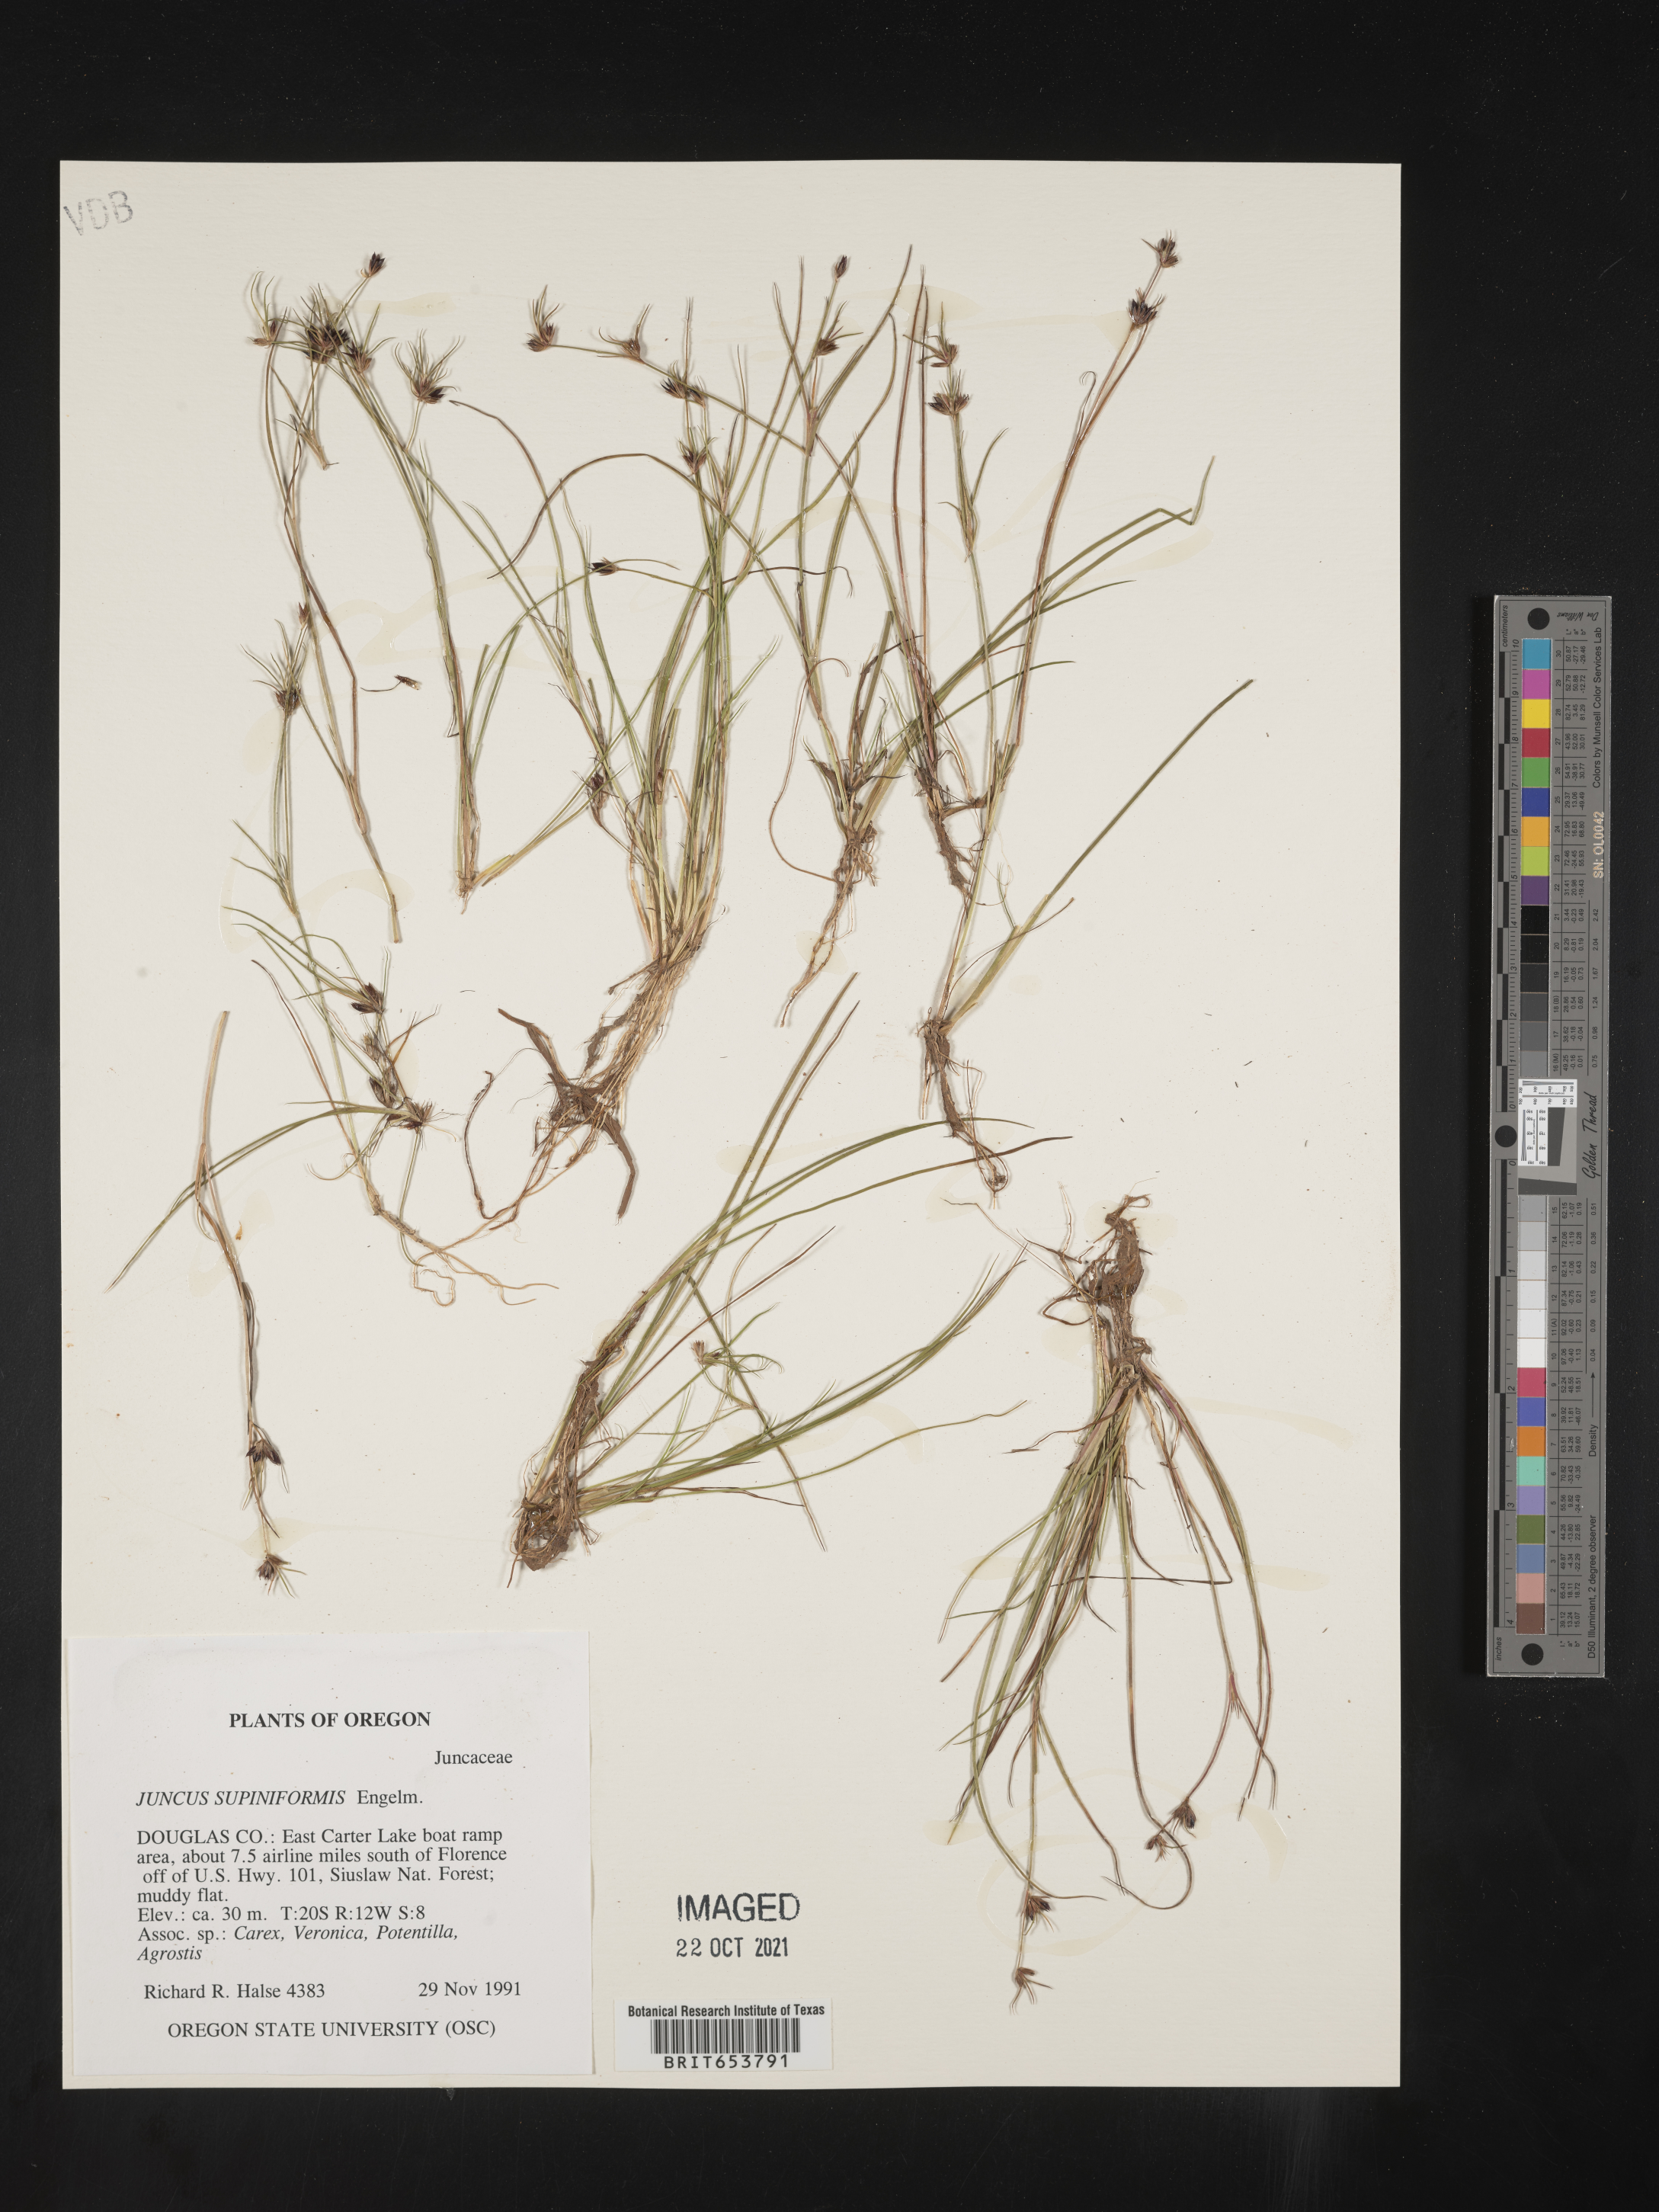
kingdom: Plantae
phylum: Tracheophyta
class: Liliopsida
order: Poales
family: Juncaceae
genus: Juncus
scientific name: Juncus supiniformis
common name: Hairy-leaved rush
